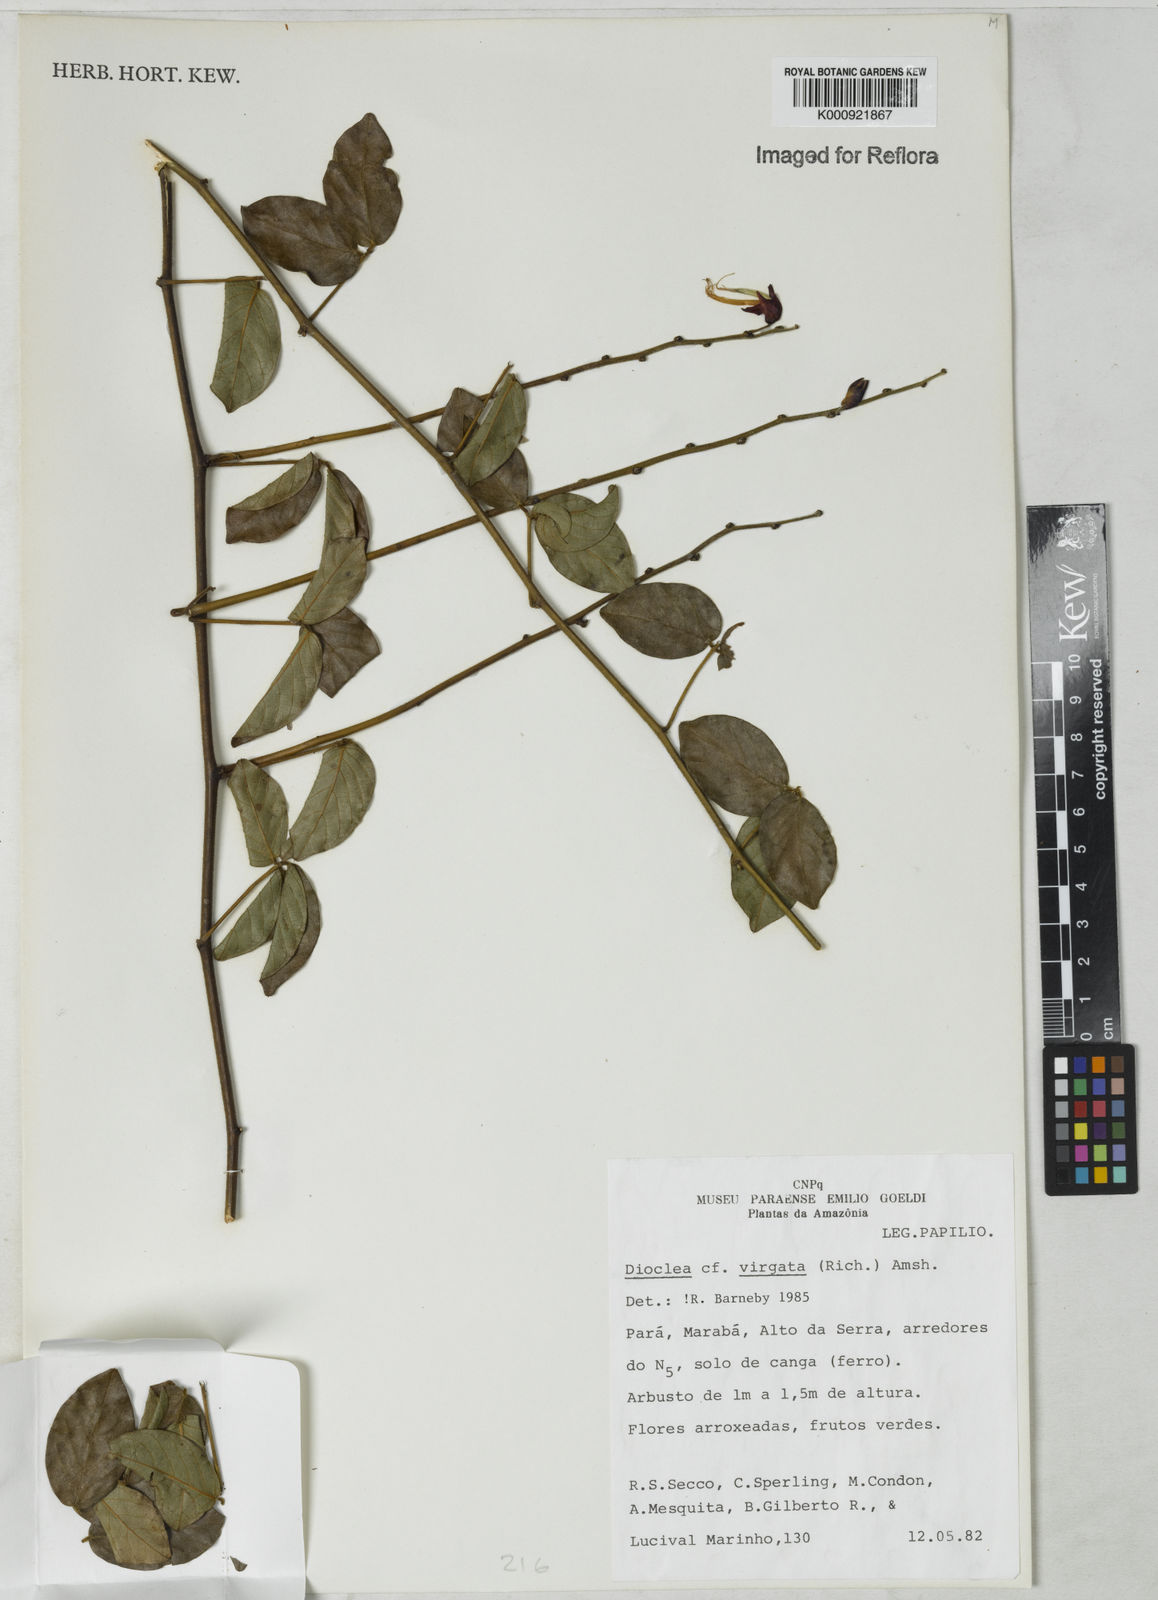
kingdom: Plantae
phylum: Tracheophyta
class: Magnoliopsida
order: Fabales
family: Fabaceae
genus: Dioclea
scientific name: Dioclea virgata
